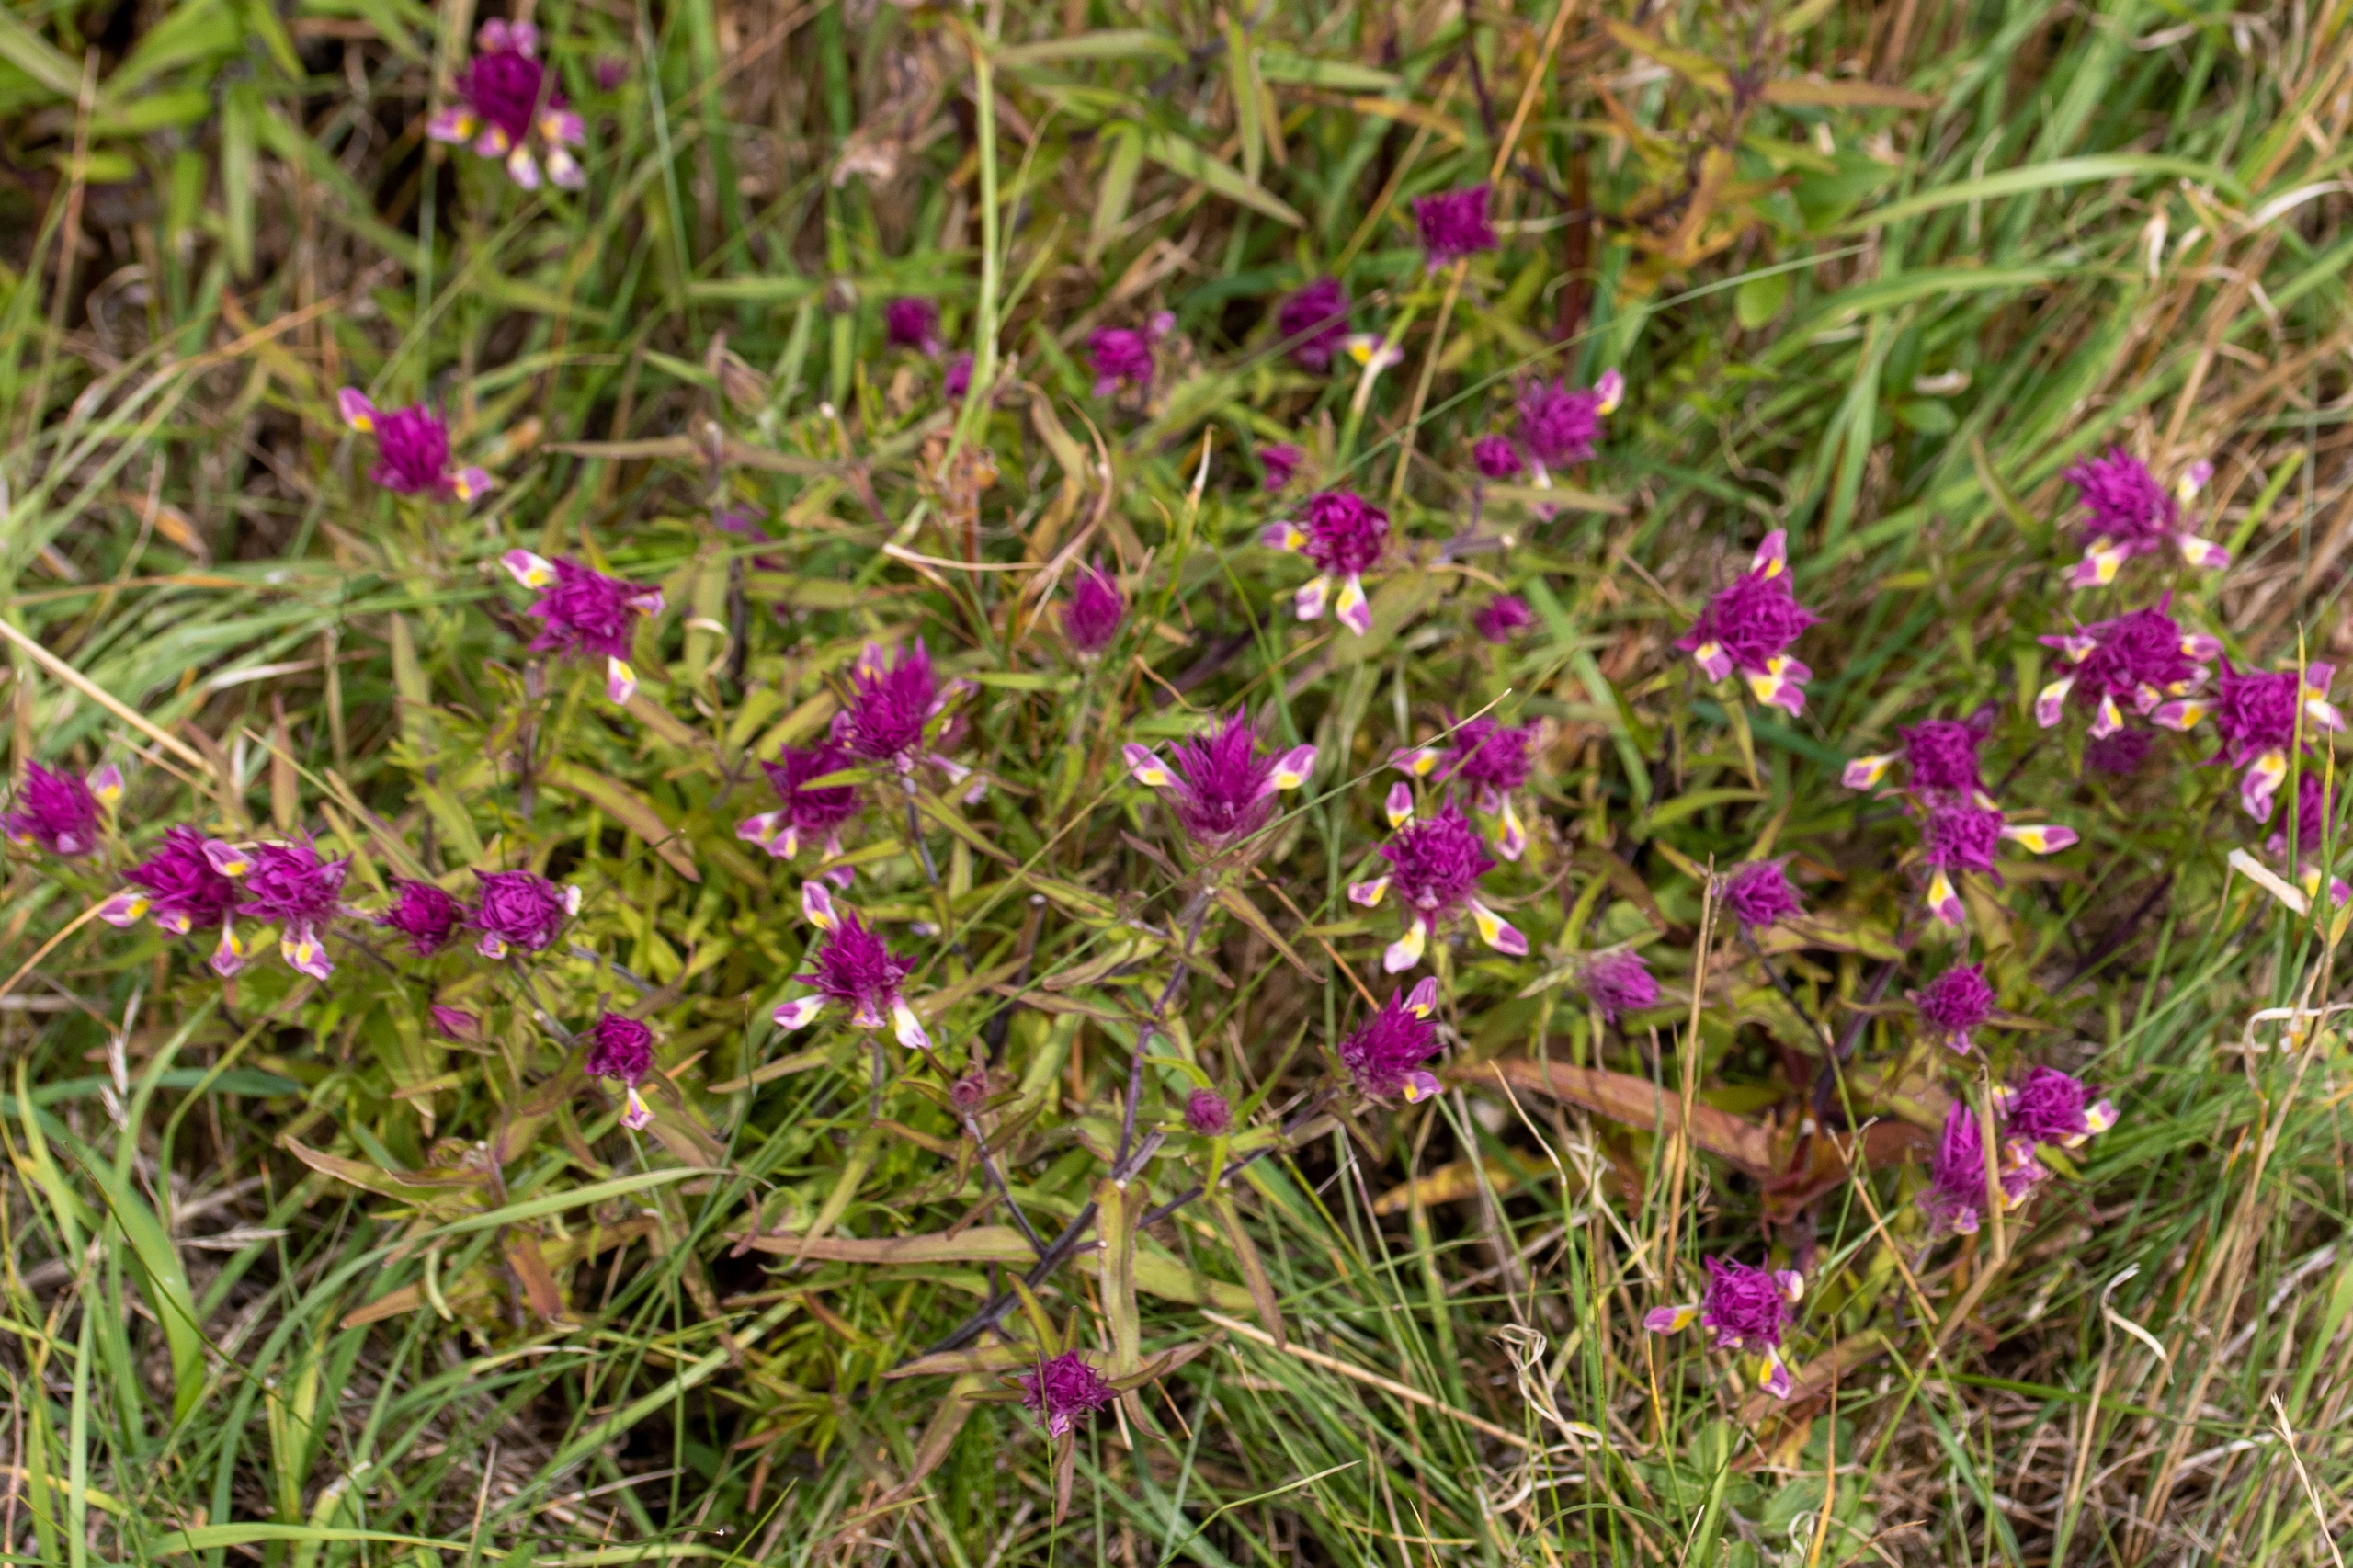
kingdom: Plantae
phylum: Tracheophyta
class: Magnoliopsida
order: Lamiales
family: Orobanchaceae
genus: Melampyrum
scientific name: Melampyrum arvense
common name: Ager-kohvede
